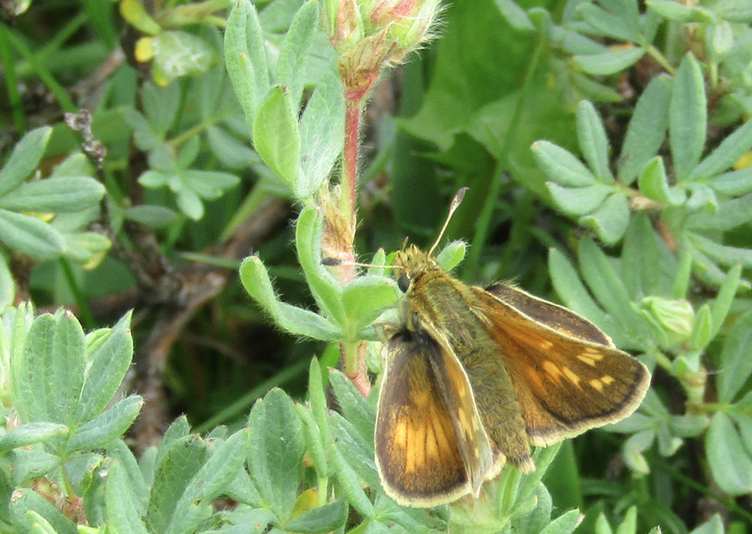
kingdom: Animalia
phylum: Arthropoda
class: Insecta
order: Lepidoptera
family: Hesperiidae
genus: Hesperia
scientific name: Hesperia comma
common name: Common Branded Skipper
